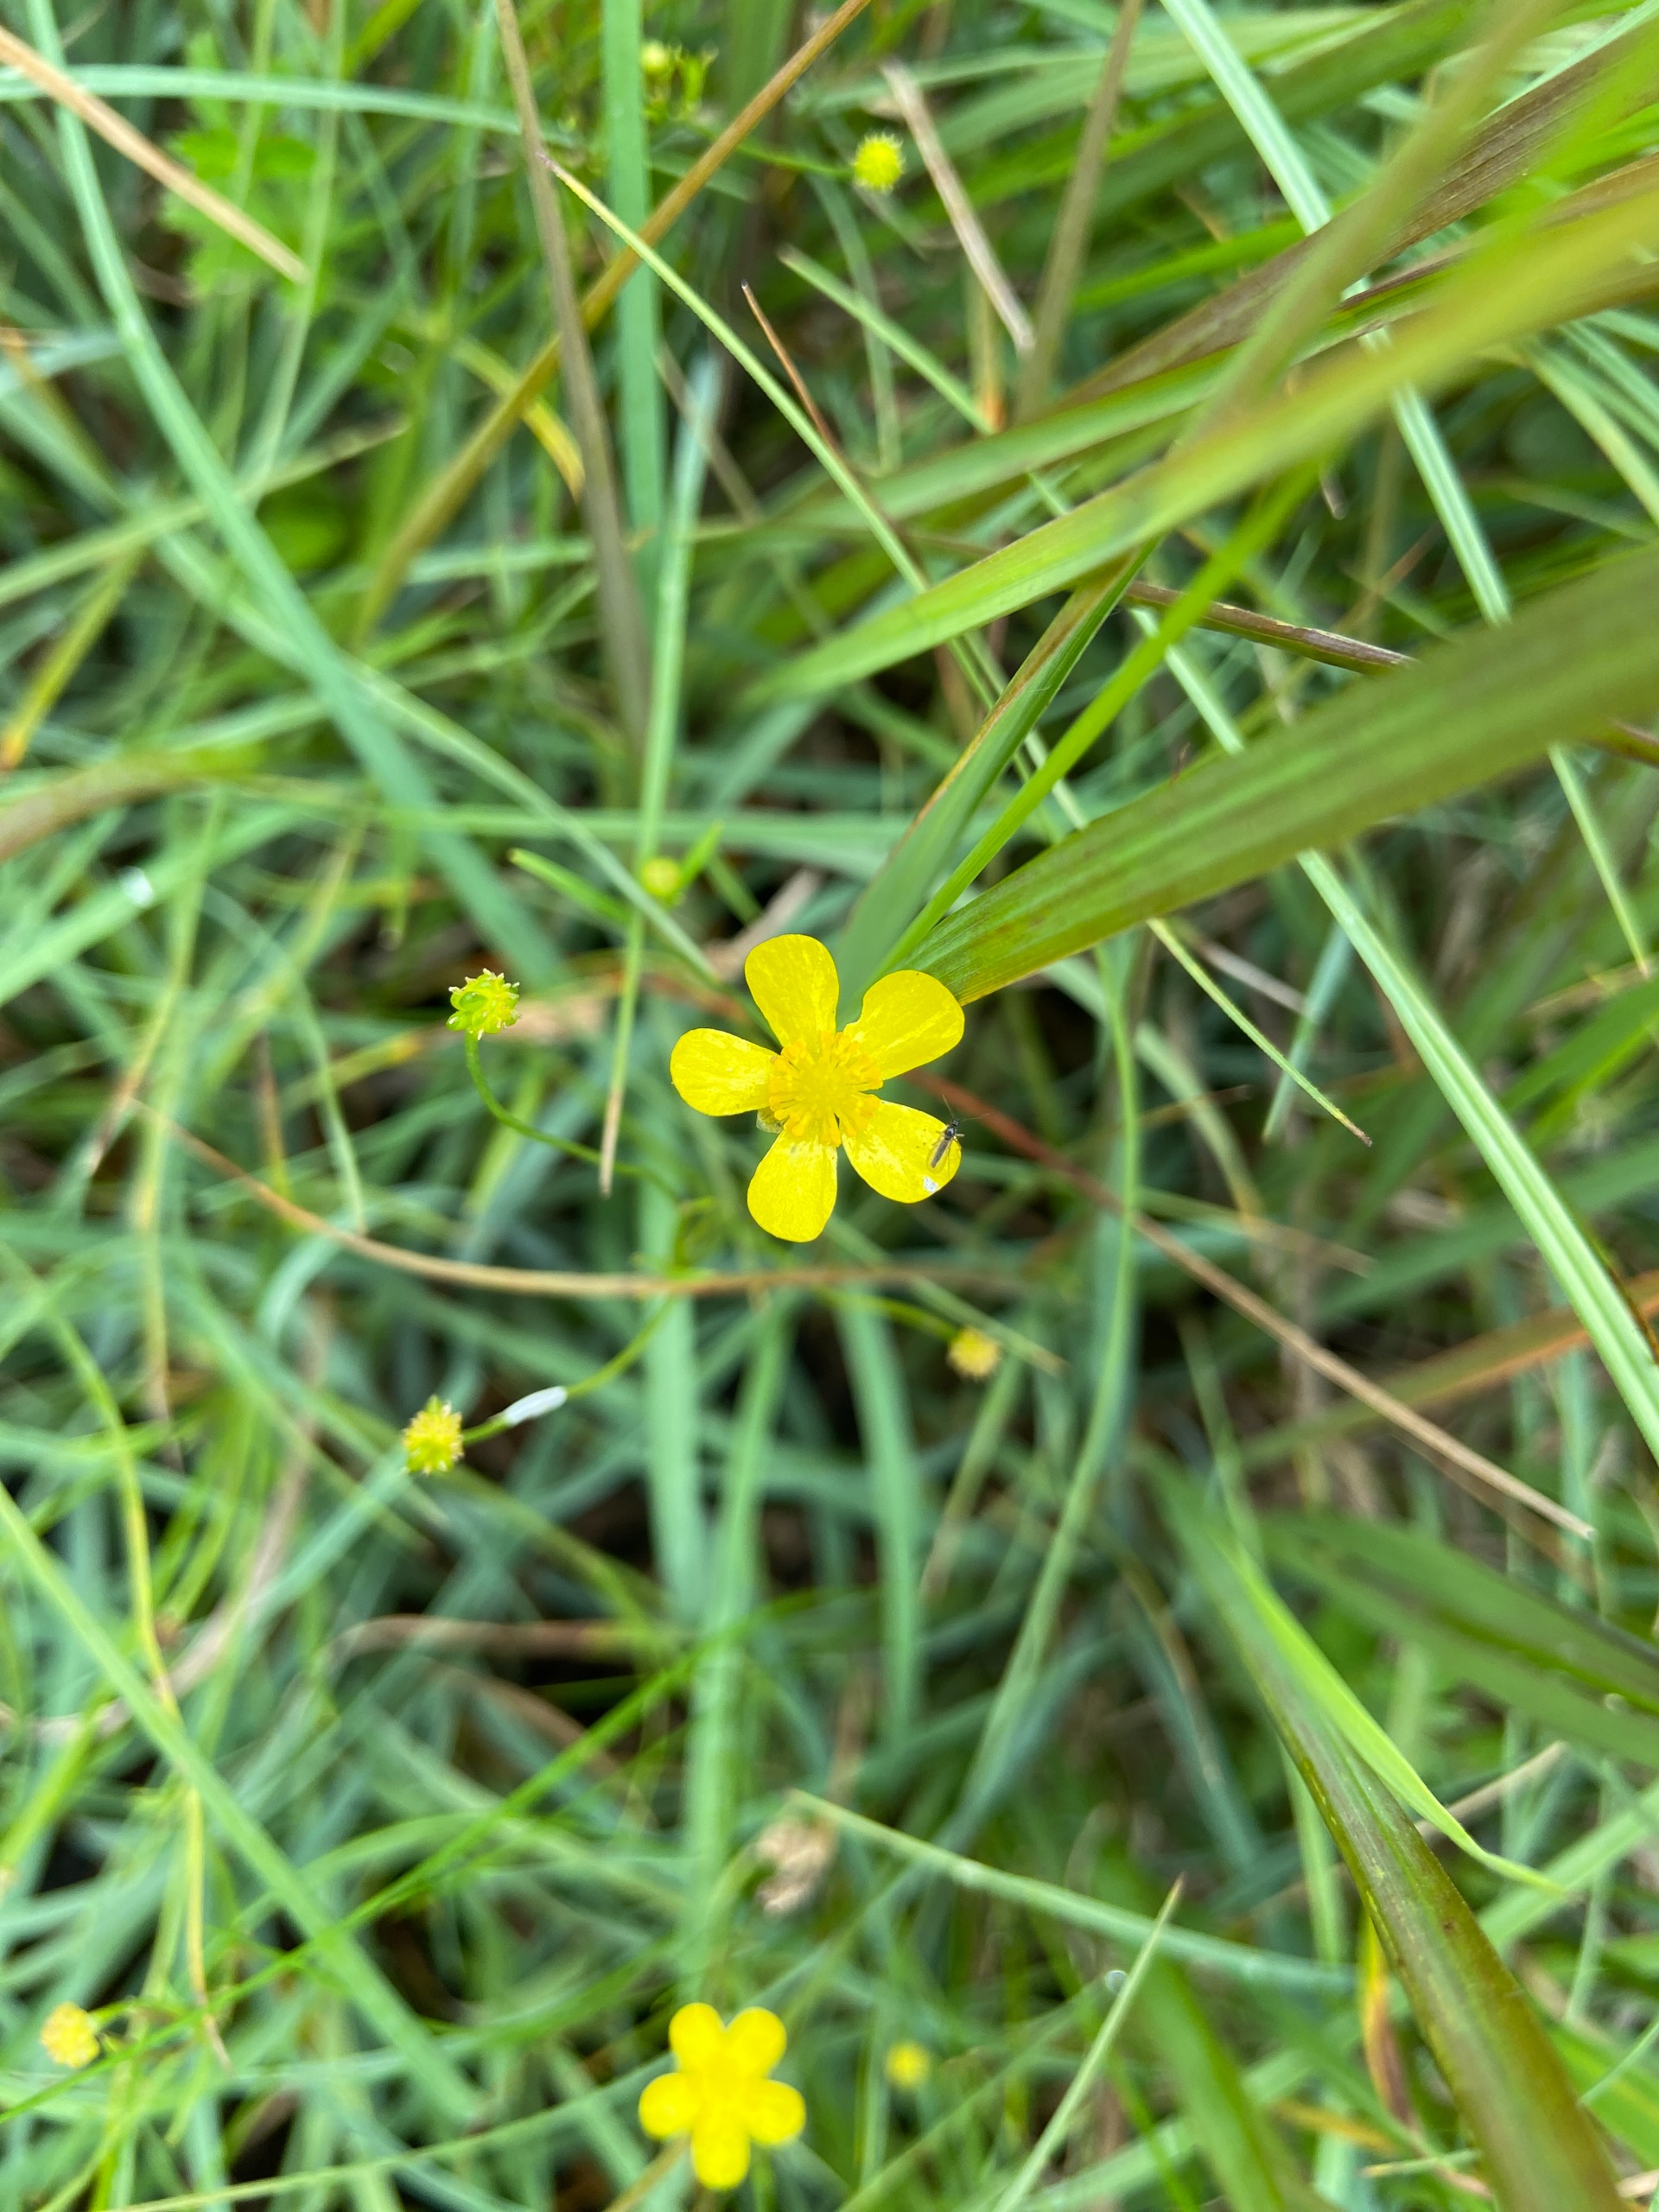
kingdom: Plantae
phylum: Tracheophyta
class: Magnoliopsida
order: Ranunculales
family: Ranunculaceae
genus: Ranunculus
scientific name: Ranunculus flammula
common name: Kær-ranunkel
